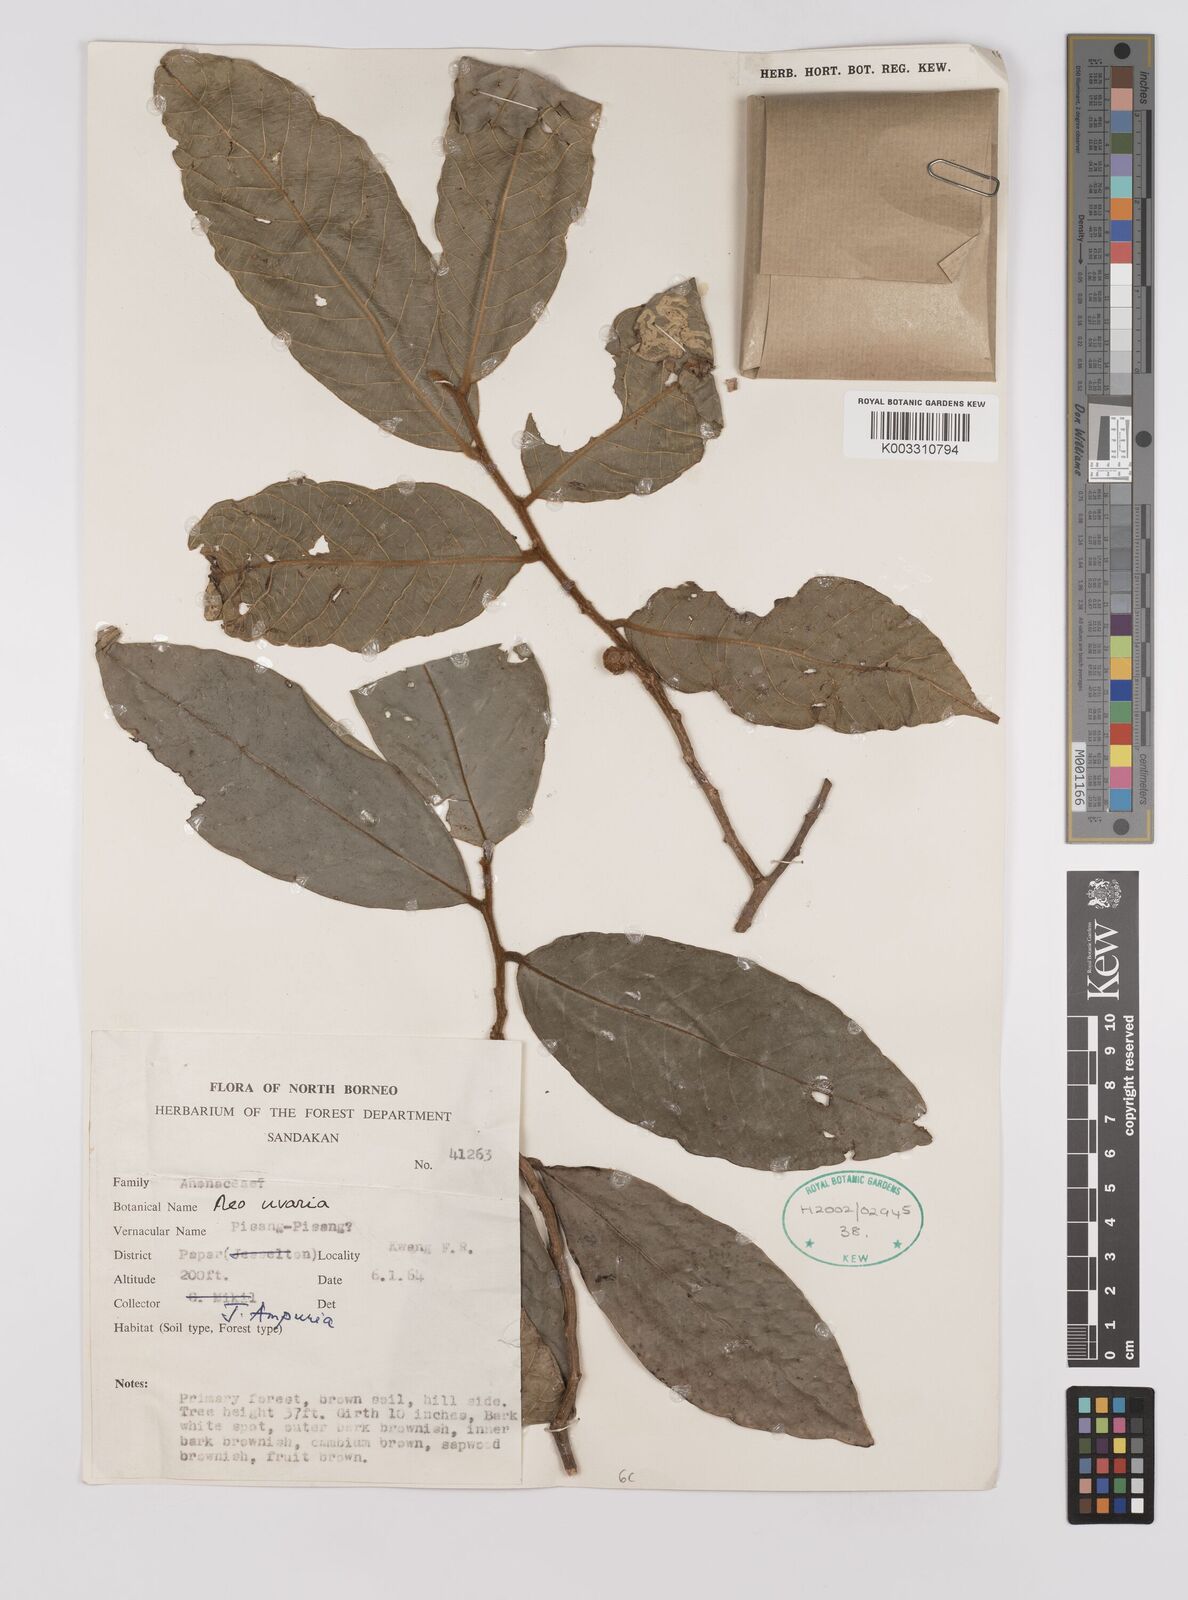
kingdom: Plantae
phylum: Tracheophyta
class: Magnoliopsida
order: Magnoliales
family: Annonaceae
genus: Neo-uvaria
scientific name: Neo-uvaria
